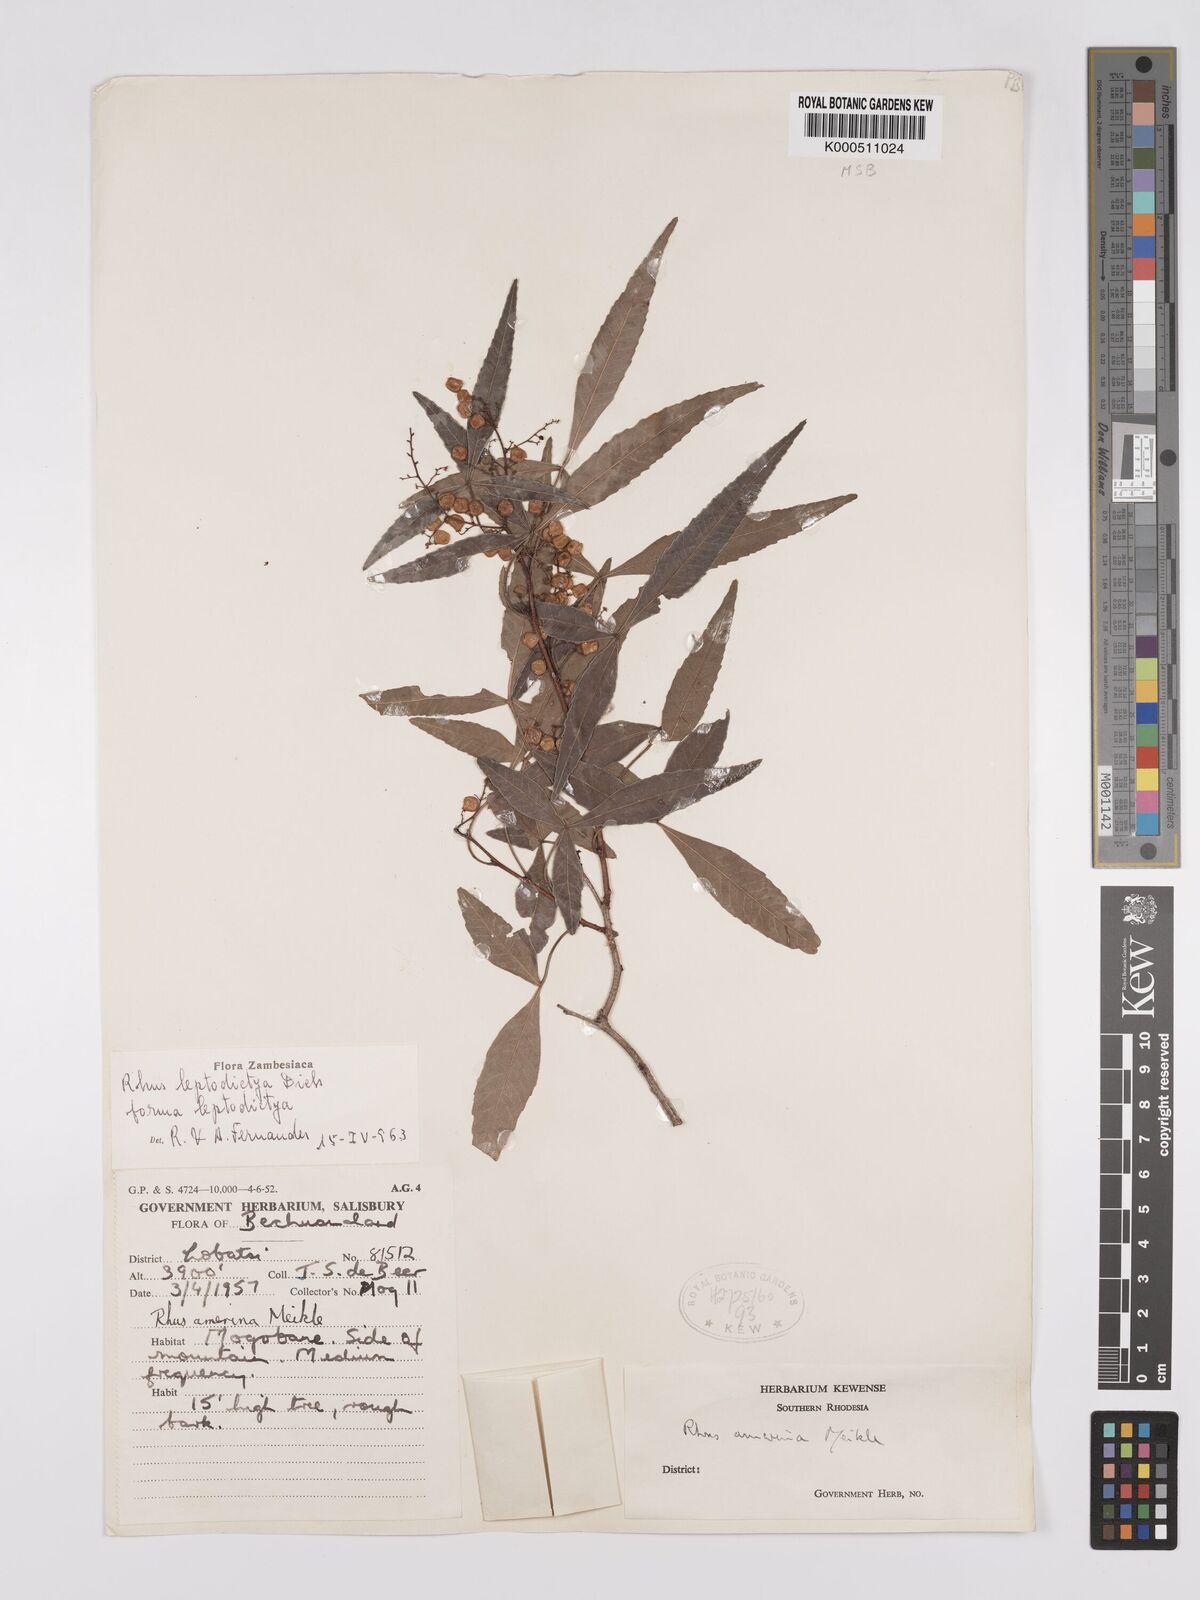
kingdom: Plantae
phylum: Tracheophyta
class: Magnoliopsida
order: Sapindales
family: Anacardiaceae
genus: Searsia
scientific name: Searsia leptodictya
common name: Mountain karee
